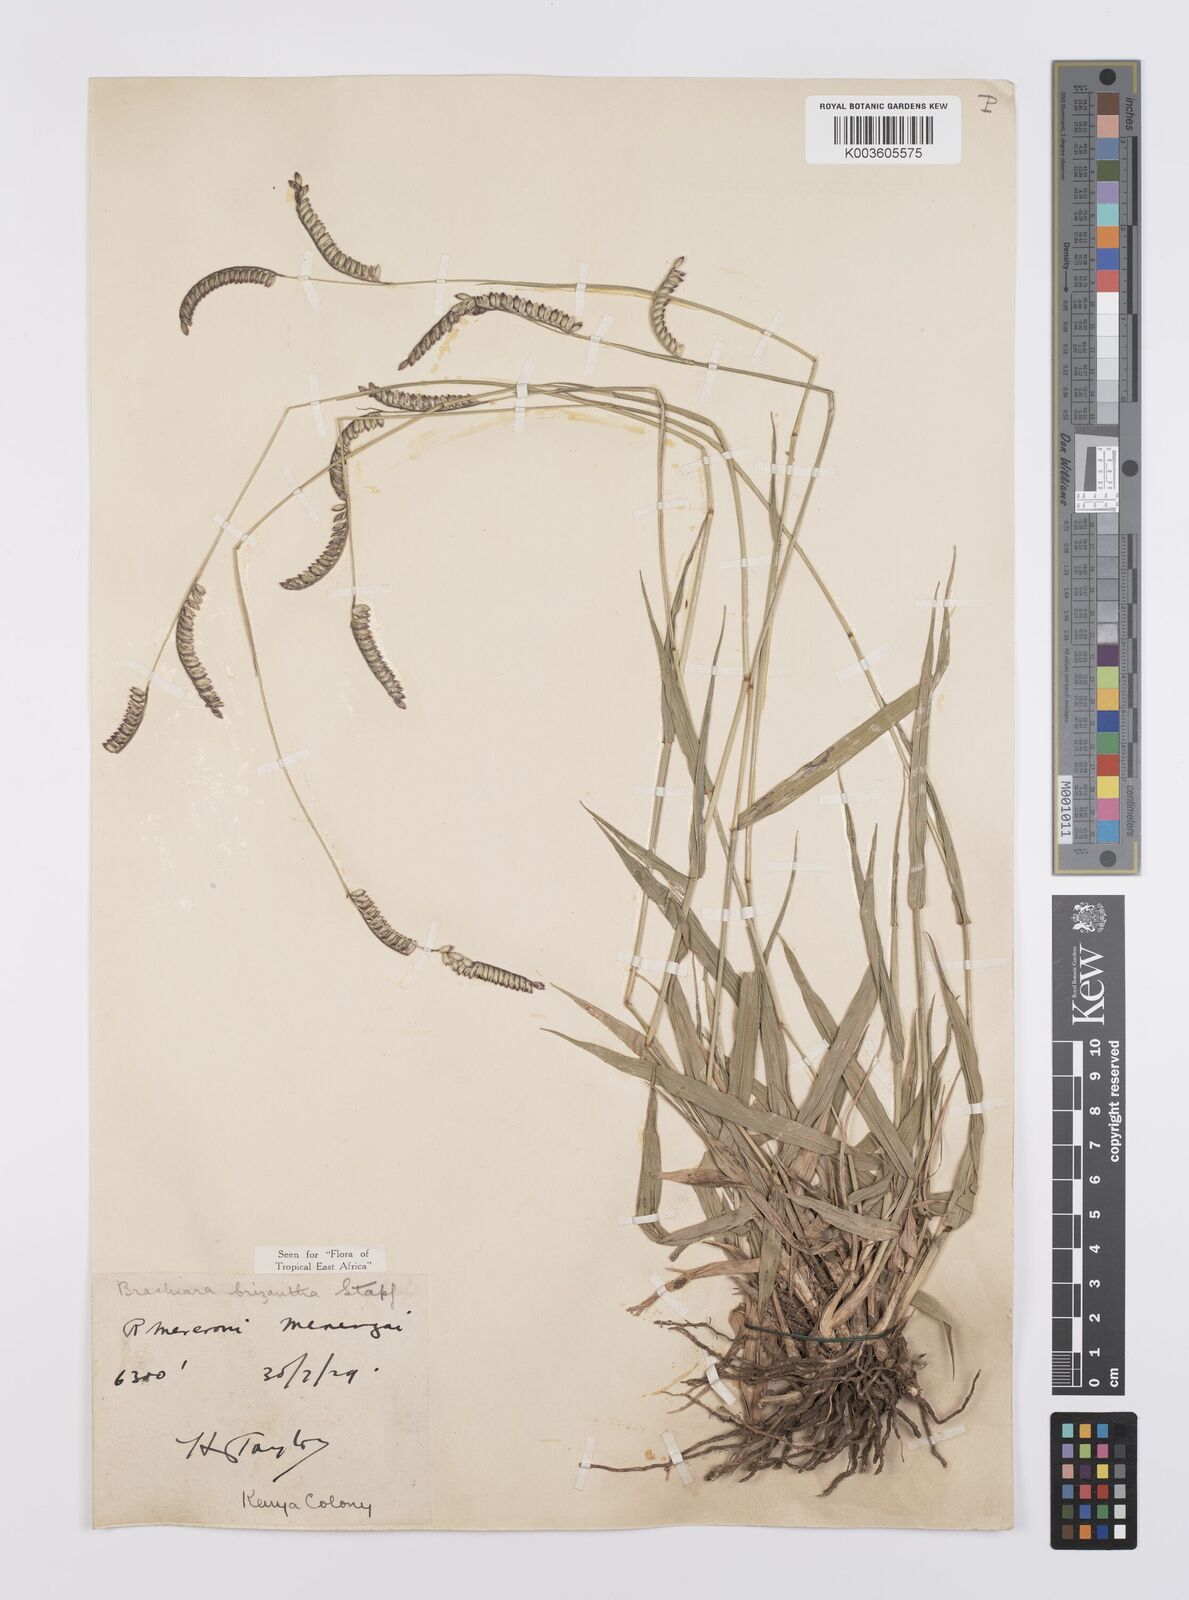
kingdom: Plantae
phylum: Tracheophyta
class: Liliopsida
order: Poales
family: Poaceae
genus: Urochloa
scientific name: Urochloa brizantha
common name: Palisade signalgrass
